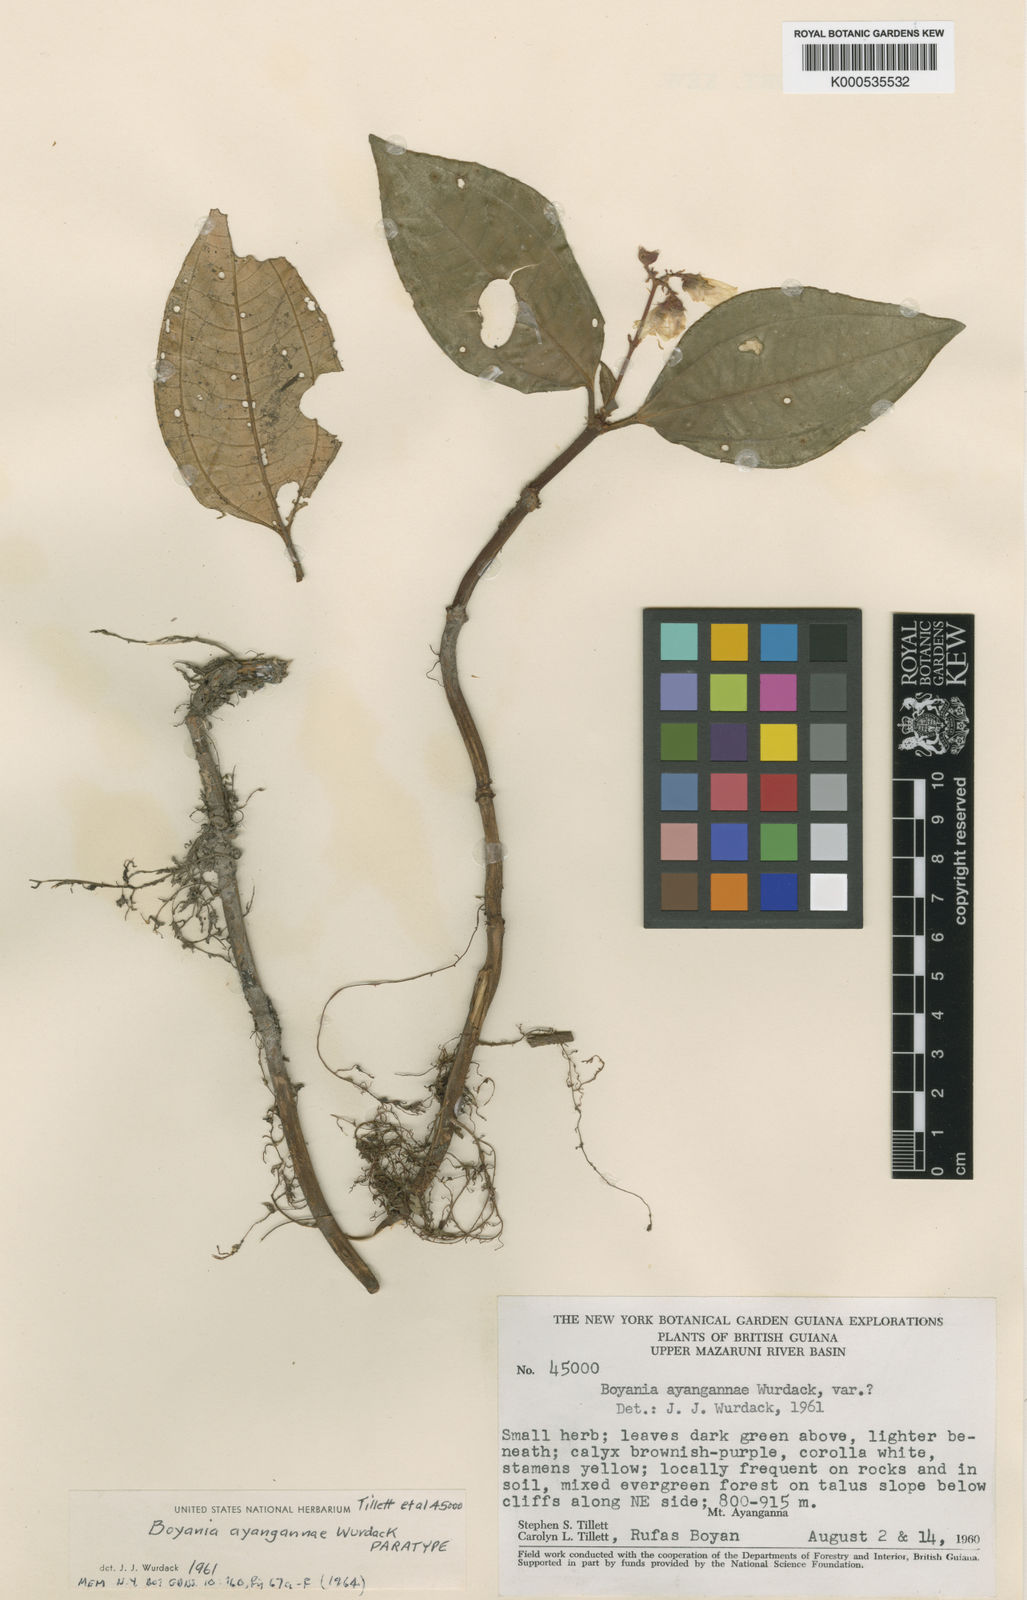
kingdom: Plantae
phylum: Tracheophyta
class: Magnoliopsida
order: Myrtales
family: Melastomataceae
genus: Boyania
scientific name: Boyania ayangannae
